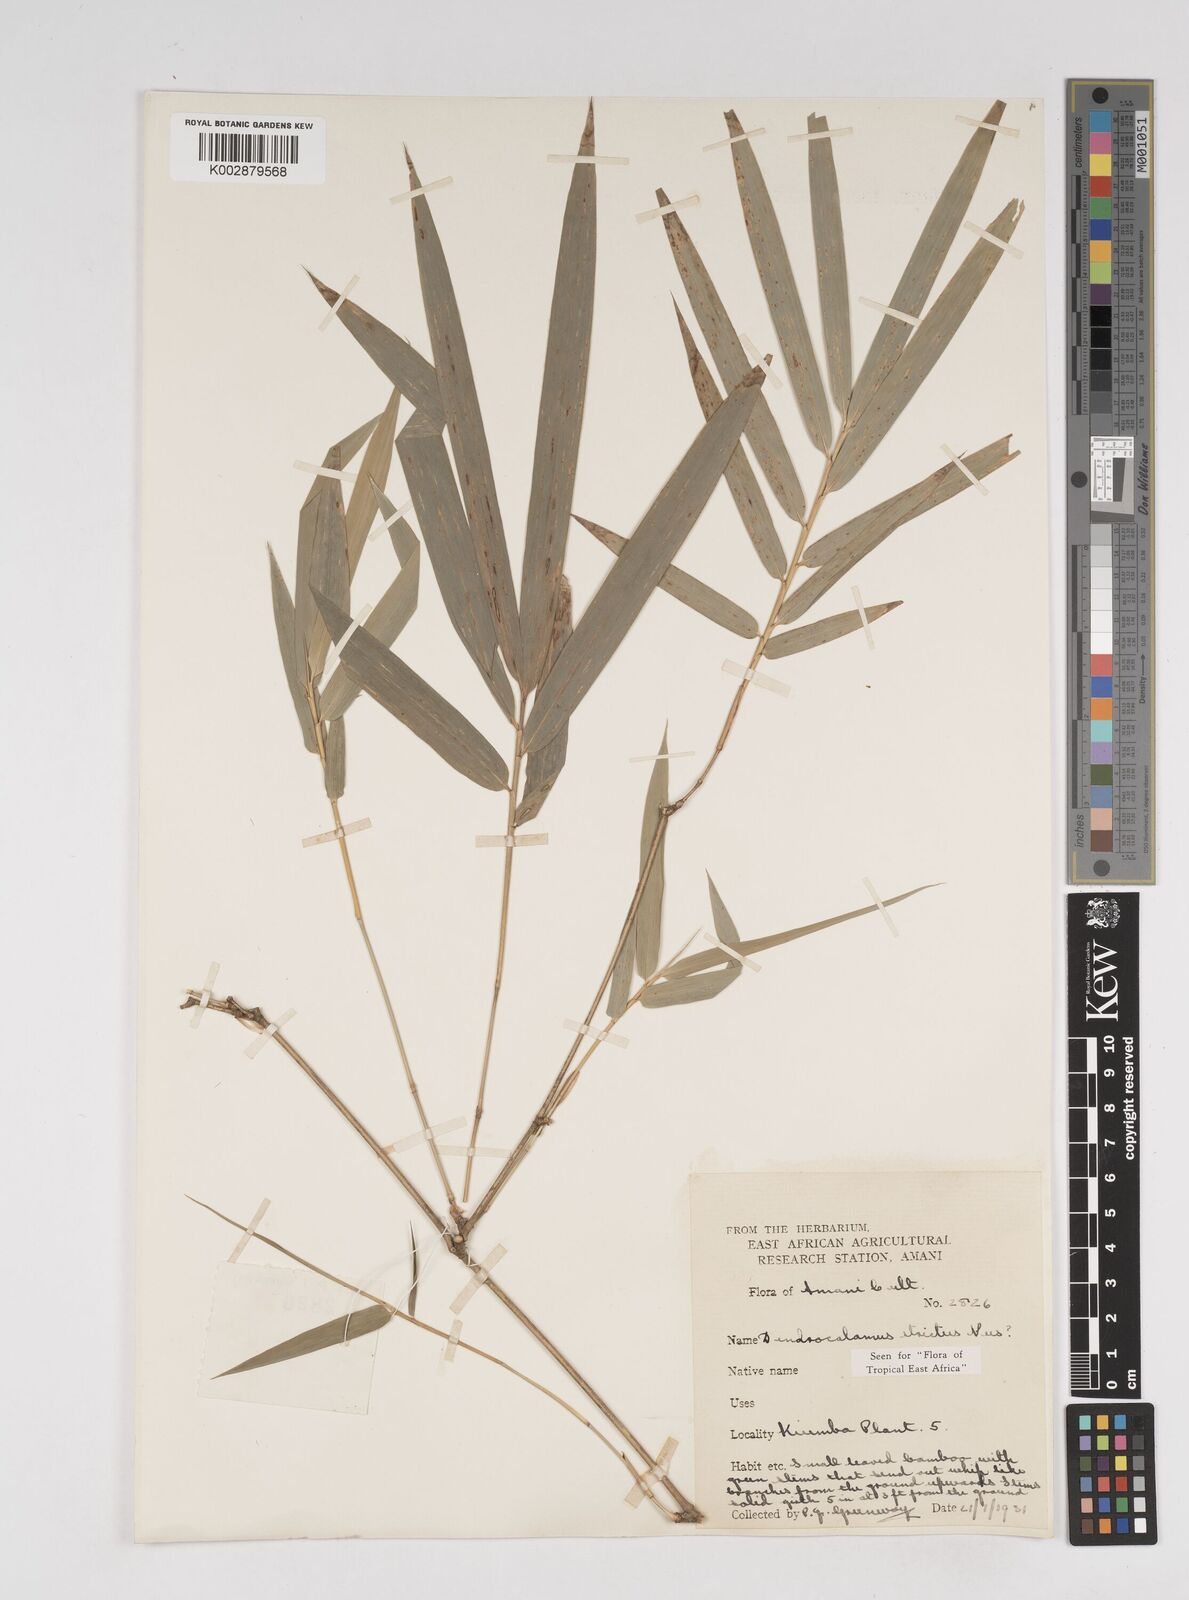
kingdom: Plantae
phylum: Tracheophyta
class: Liliopsida
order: Poales
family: Poaceae
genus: Dendrocalamus
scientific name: Dendrocalamus strictus
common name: Male bamboo
